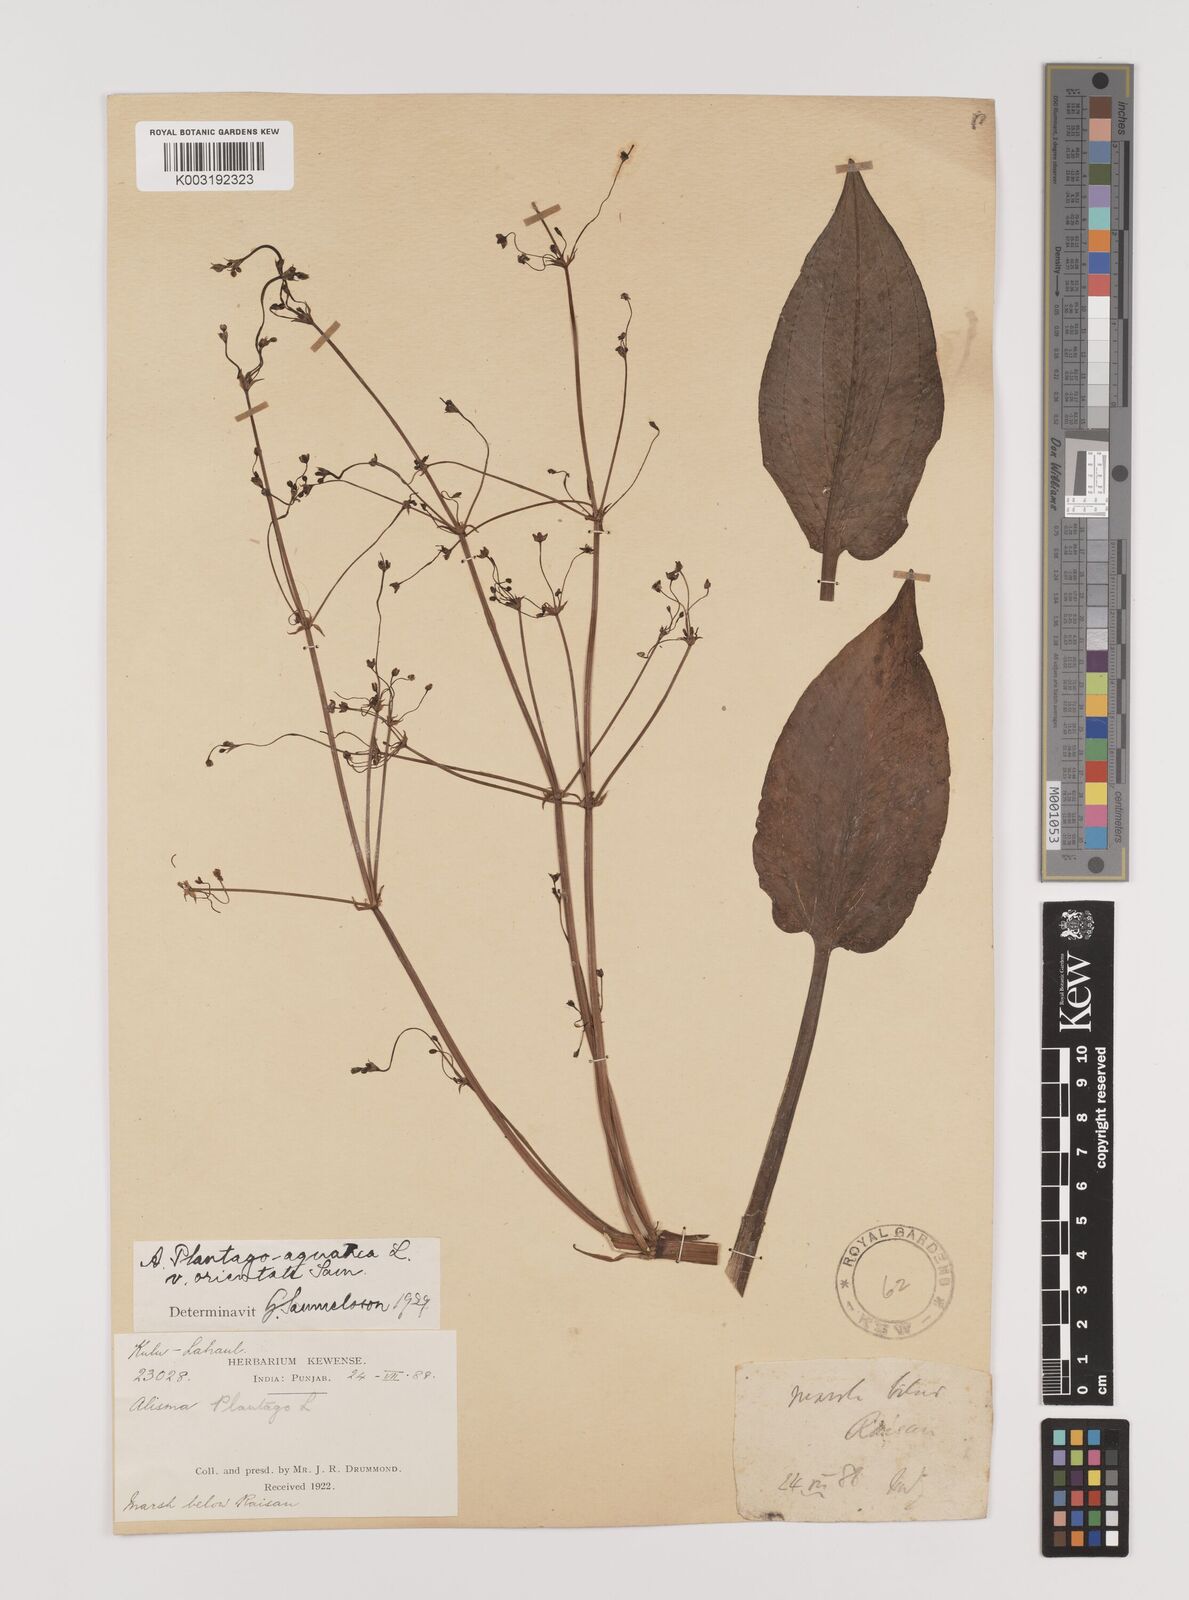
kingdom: Plantae
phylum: Tracheophyta
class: Liliopsida
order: Alismatales
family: Alismataceae
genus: Alisma
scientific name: Alisma plantago-aquatica
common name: Water-plantain
